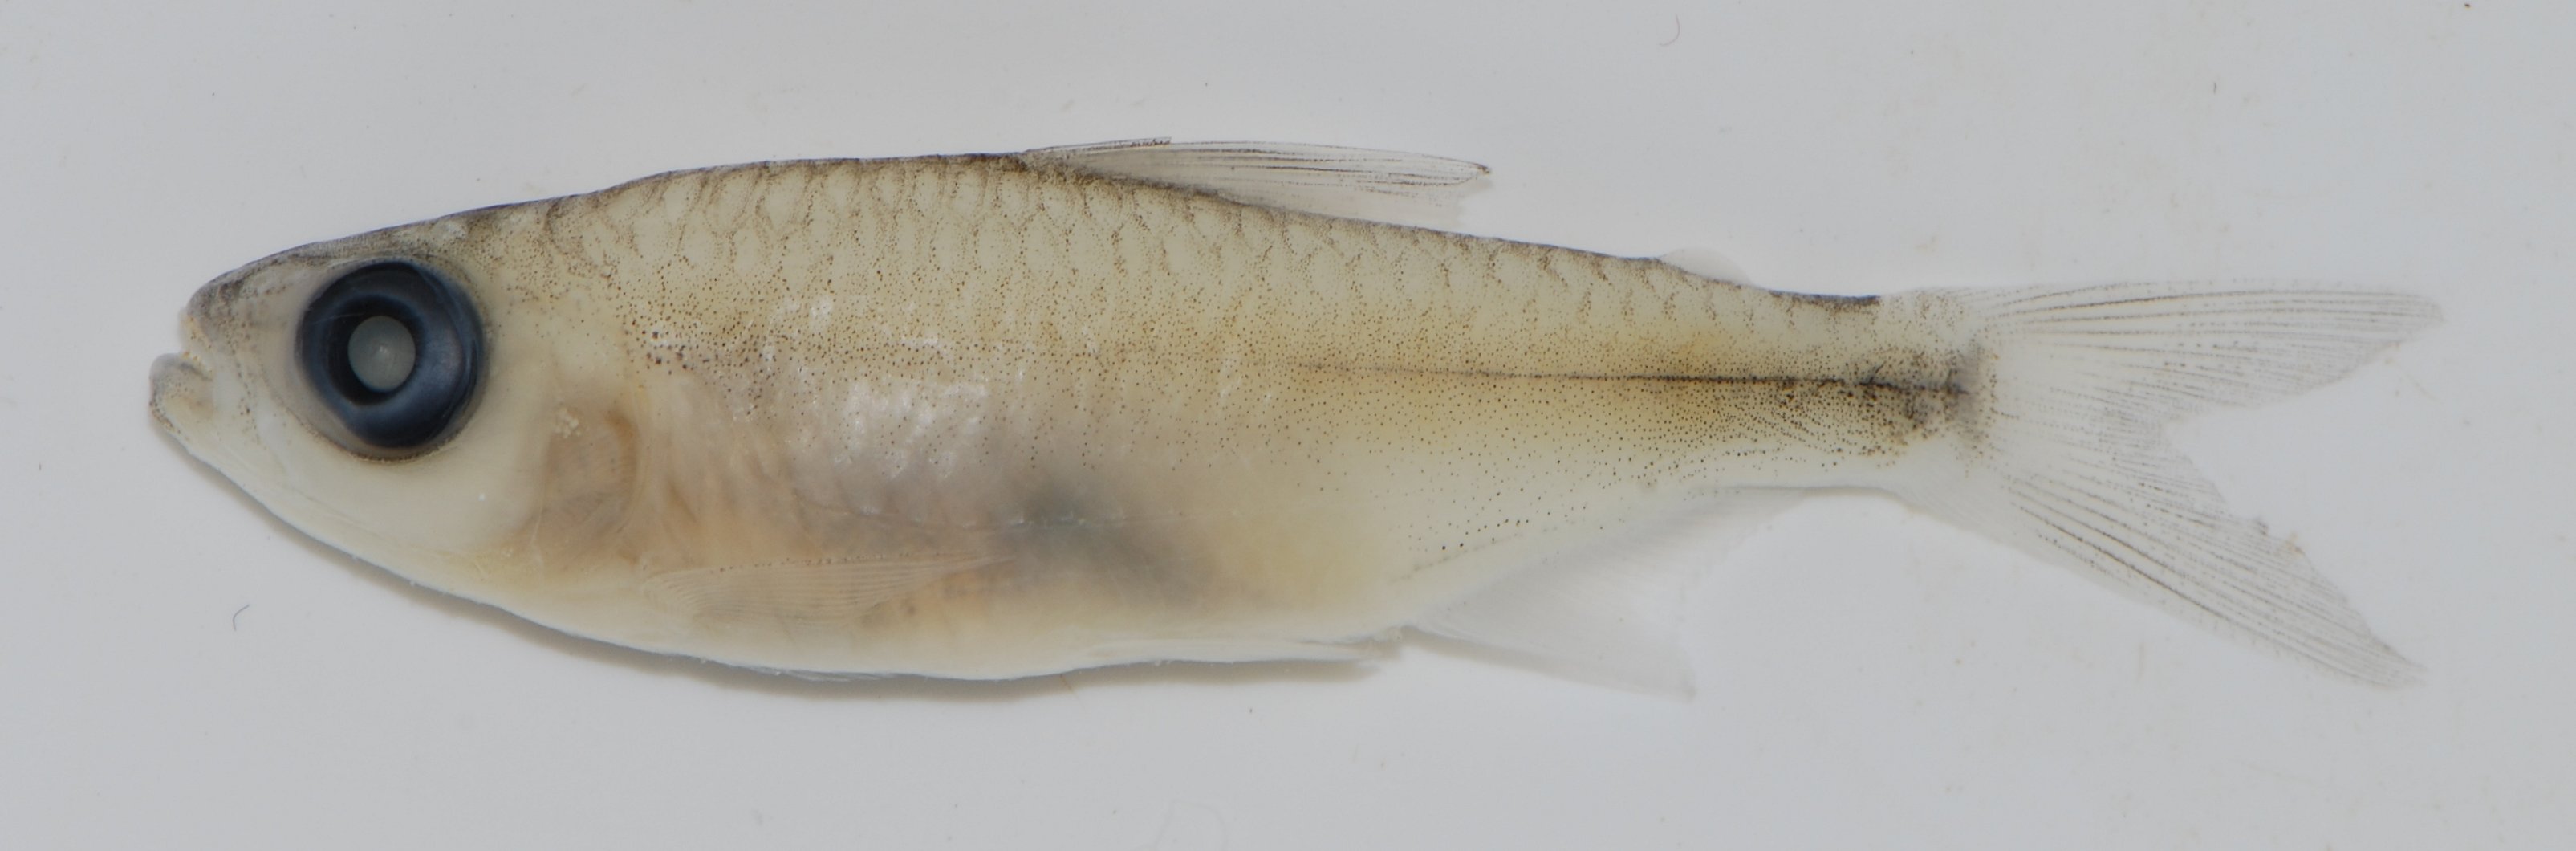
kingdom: Animalia
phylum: Chordata
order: Characiformes
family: Alestidae
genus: Micralestes
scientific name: Micralestes
